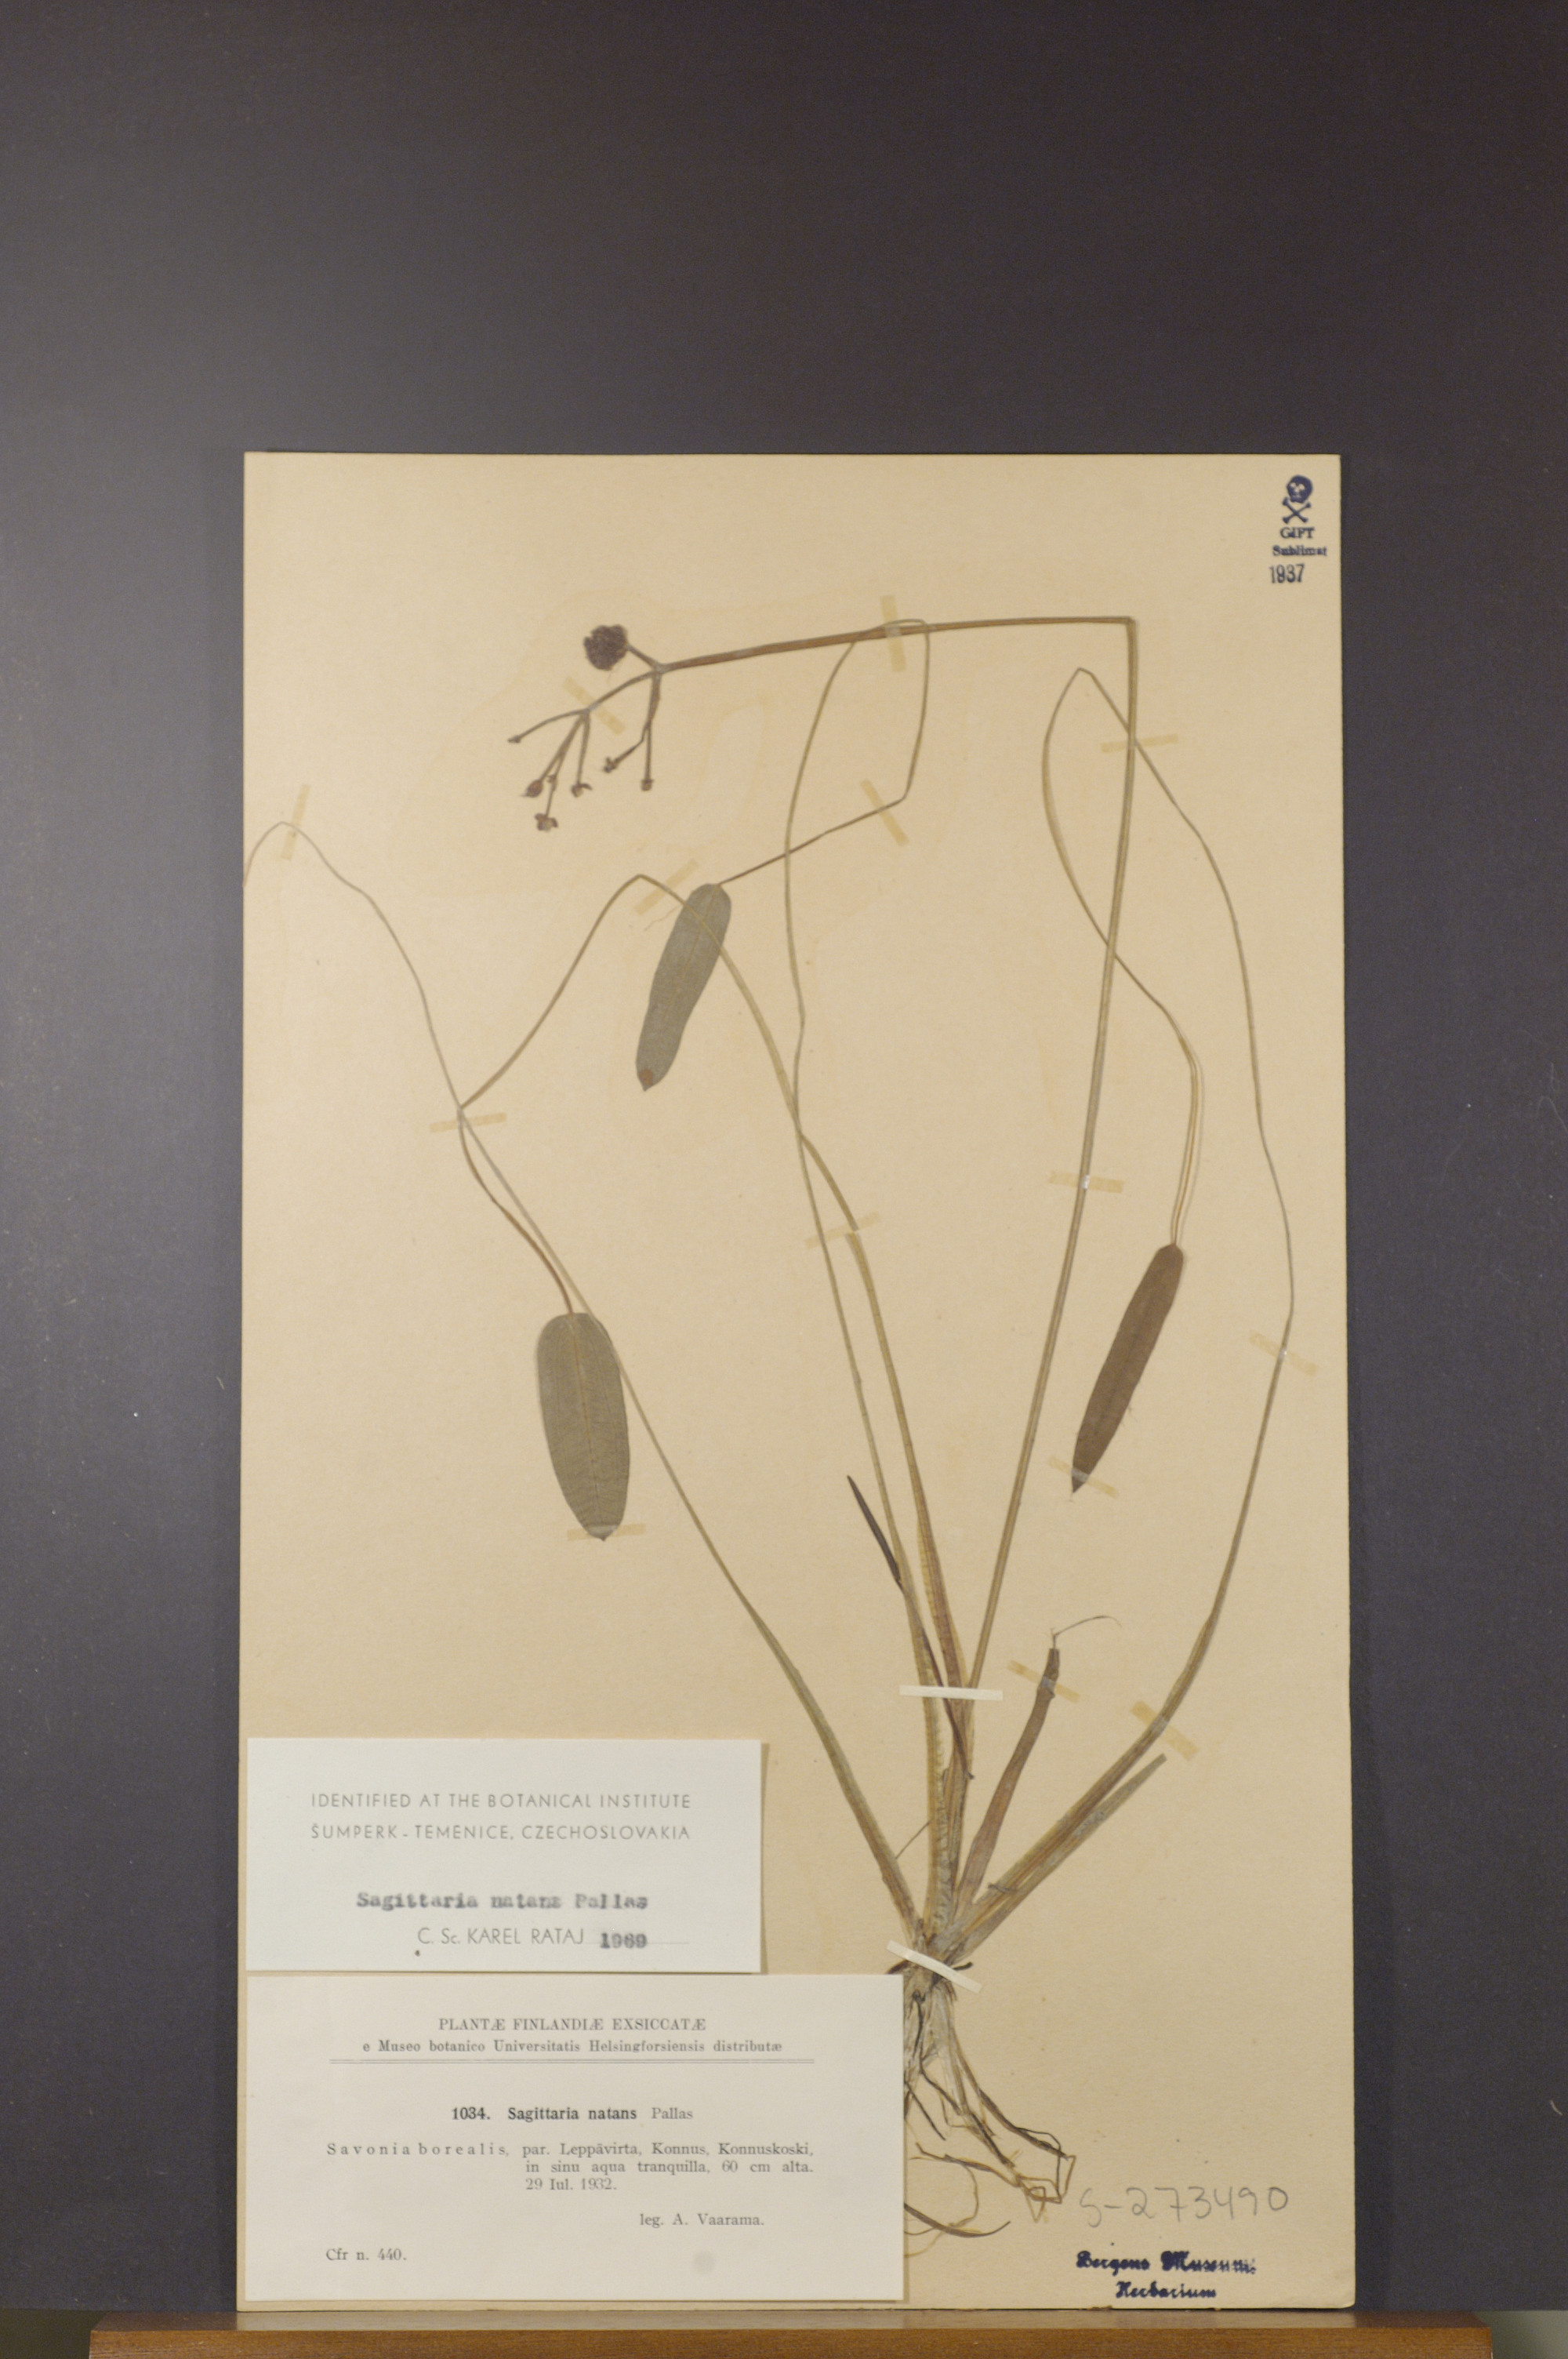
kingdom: Plantae
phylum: Tracheophyta
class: Liliopsida
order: Alismatales
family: Alismataceae
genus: Sagittaria
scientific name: Sagittaria natans
